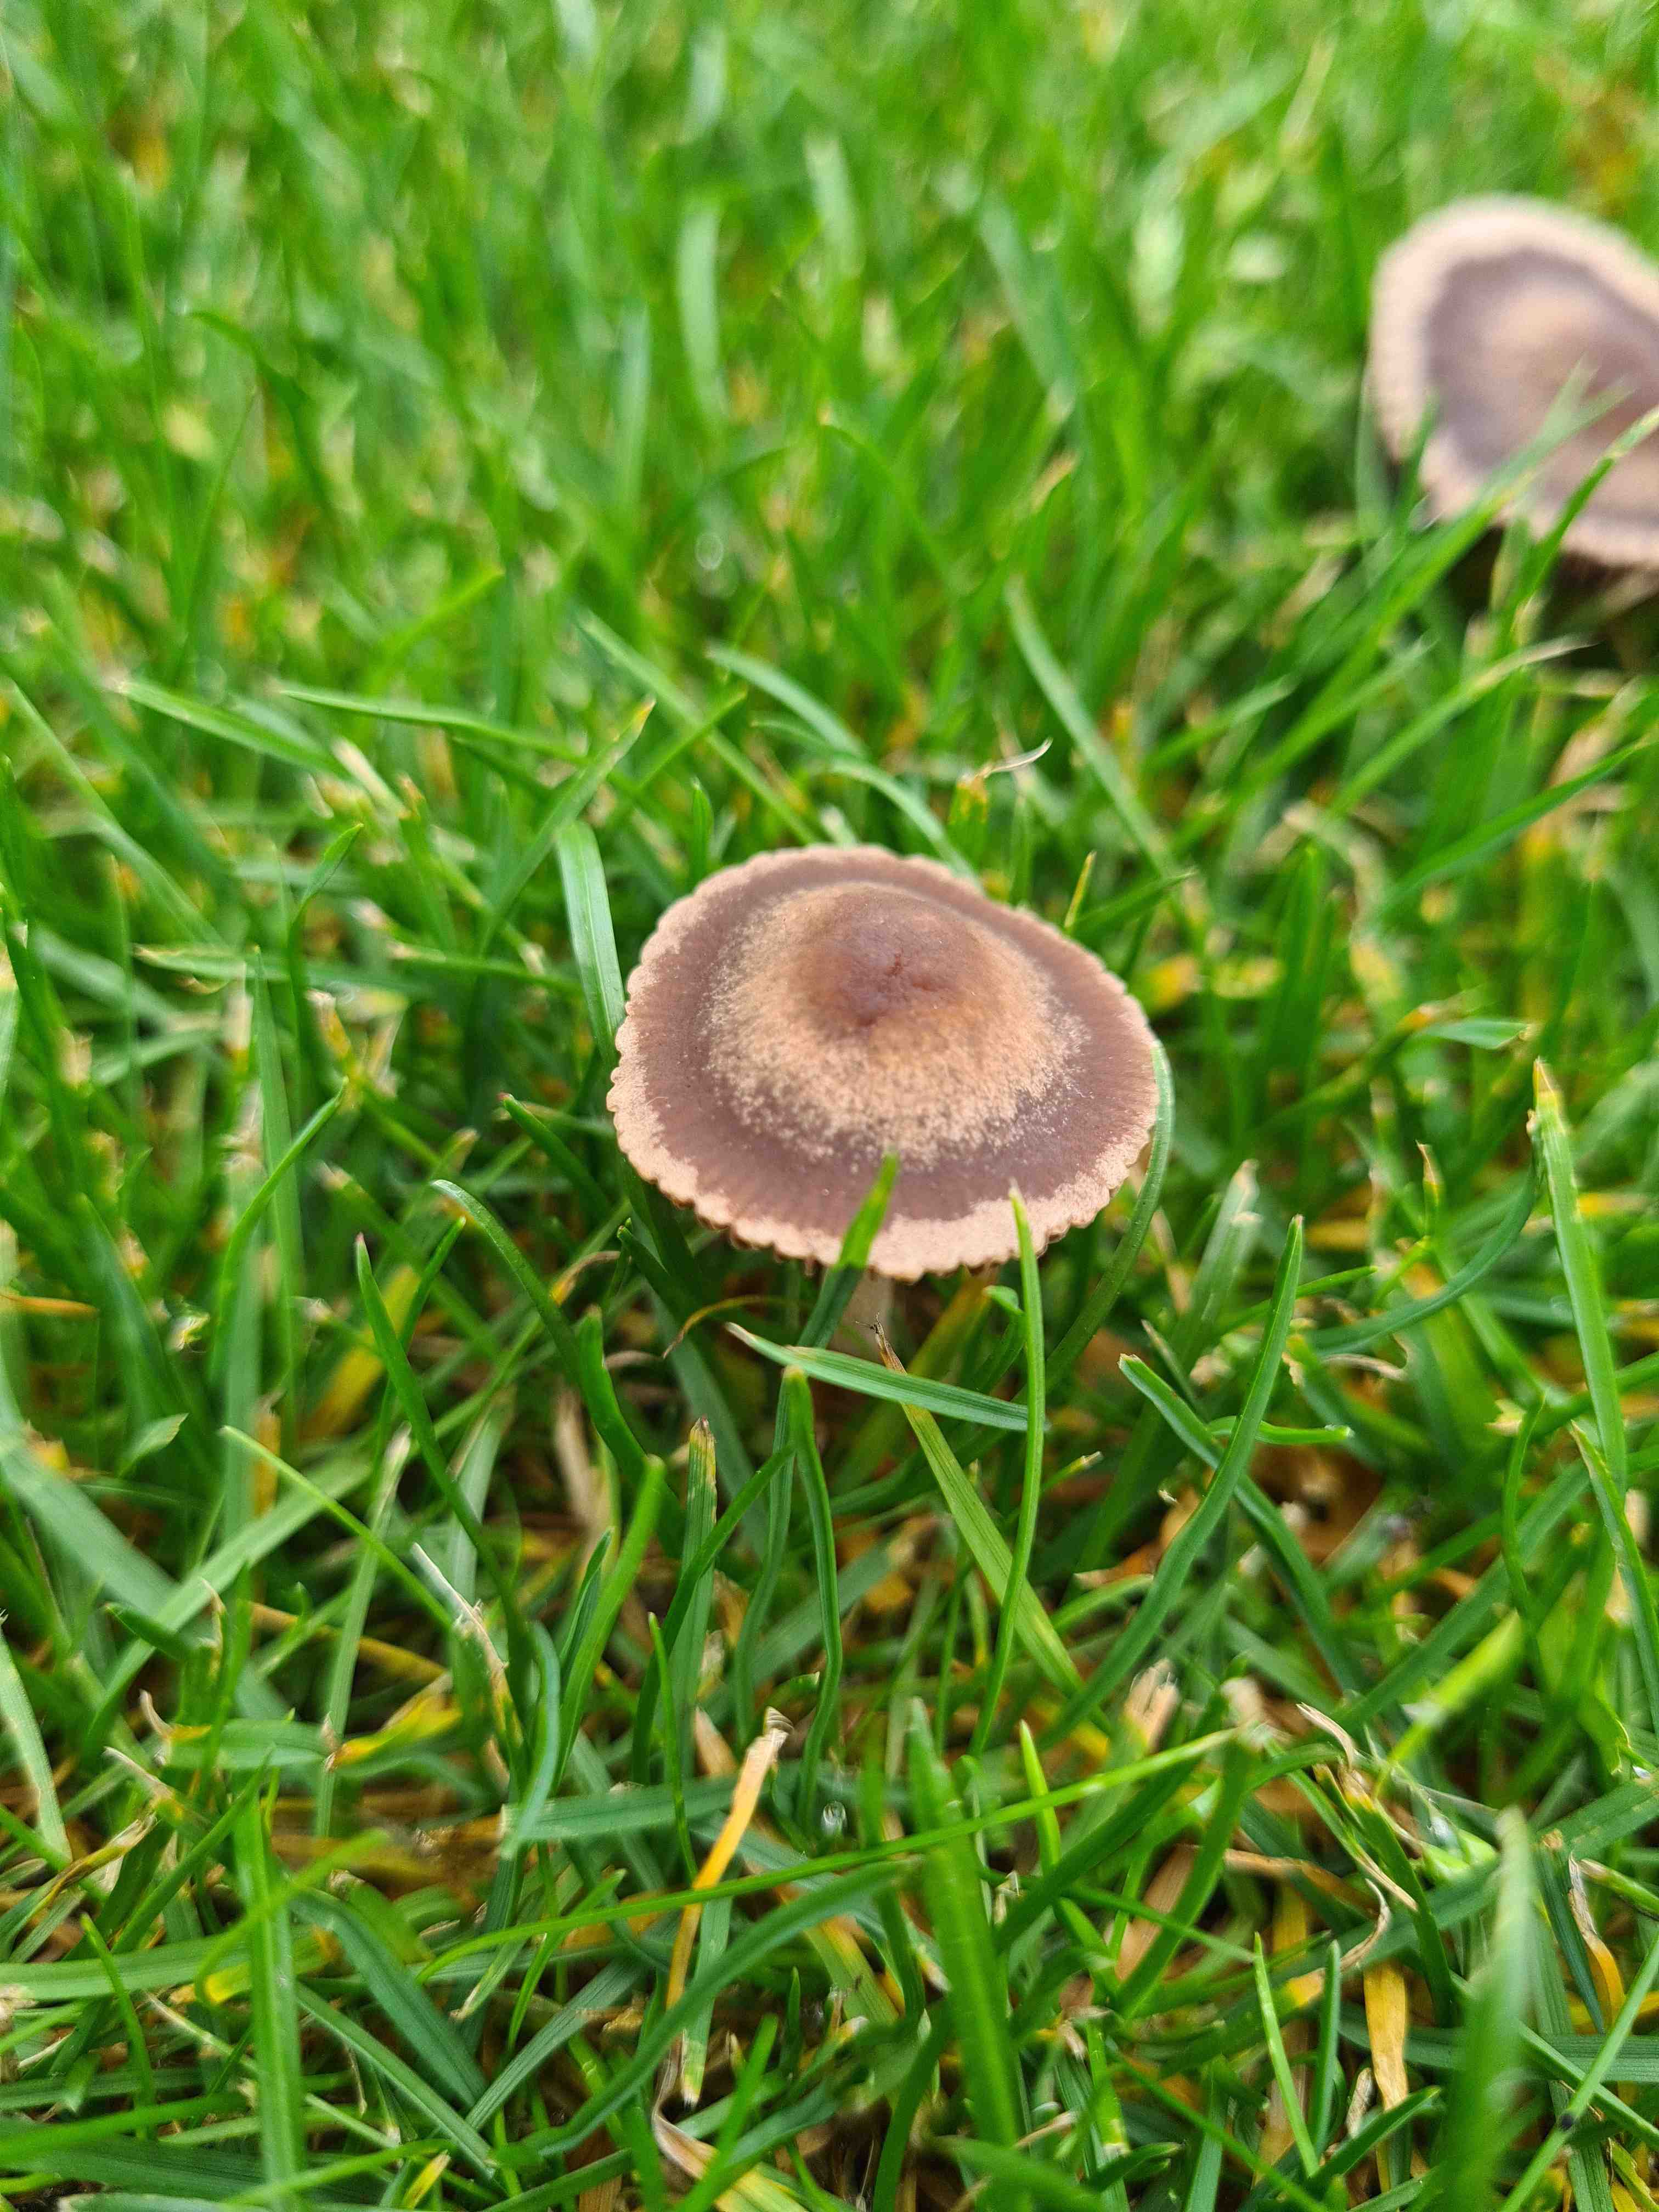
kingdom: Fungi
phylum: Basidiomycota
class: Agaricomycetes
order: Agaricales
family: Bolbitiaceae
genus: Panaeolina
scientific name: Panaeolina foenisecii
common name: høslætsvamp
